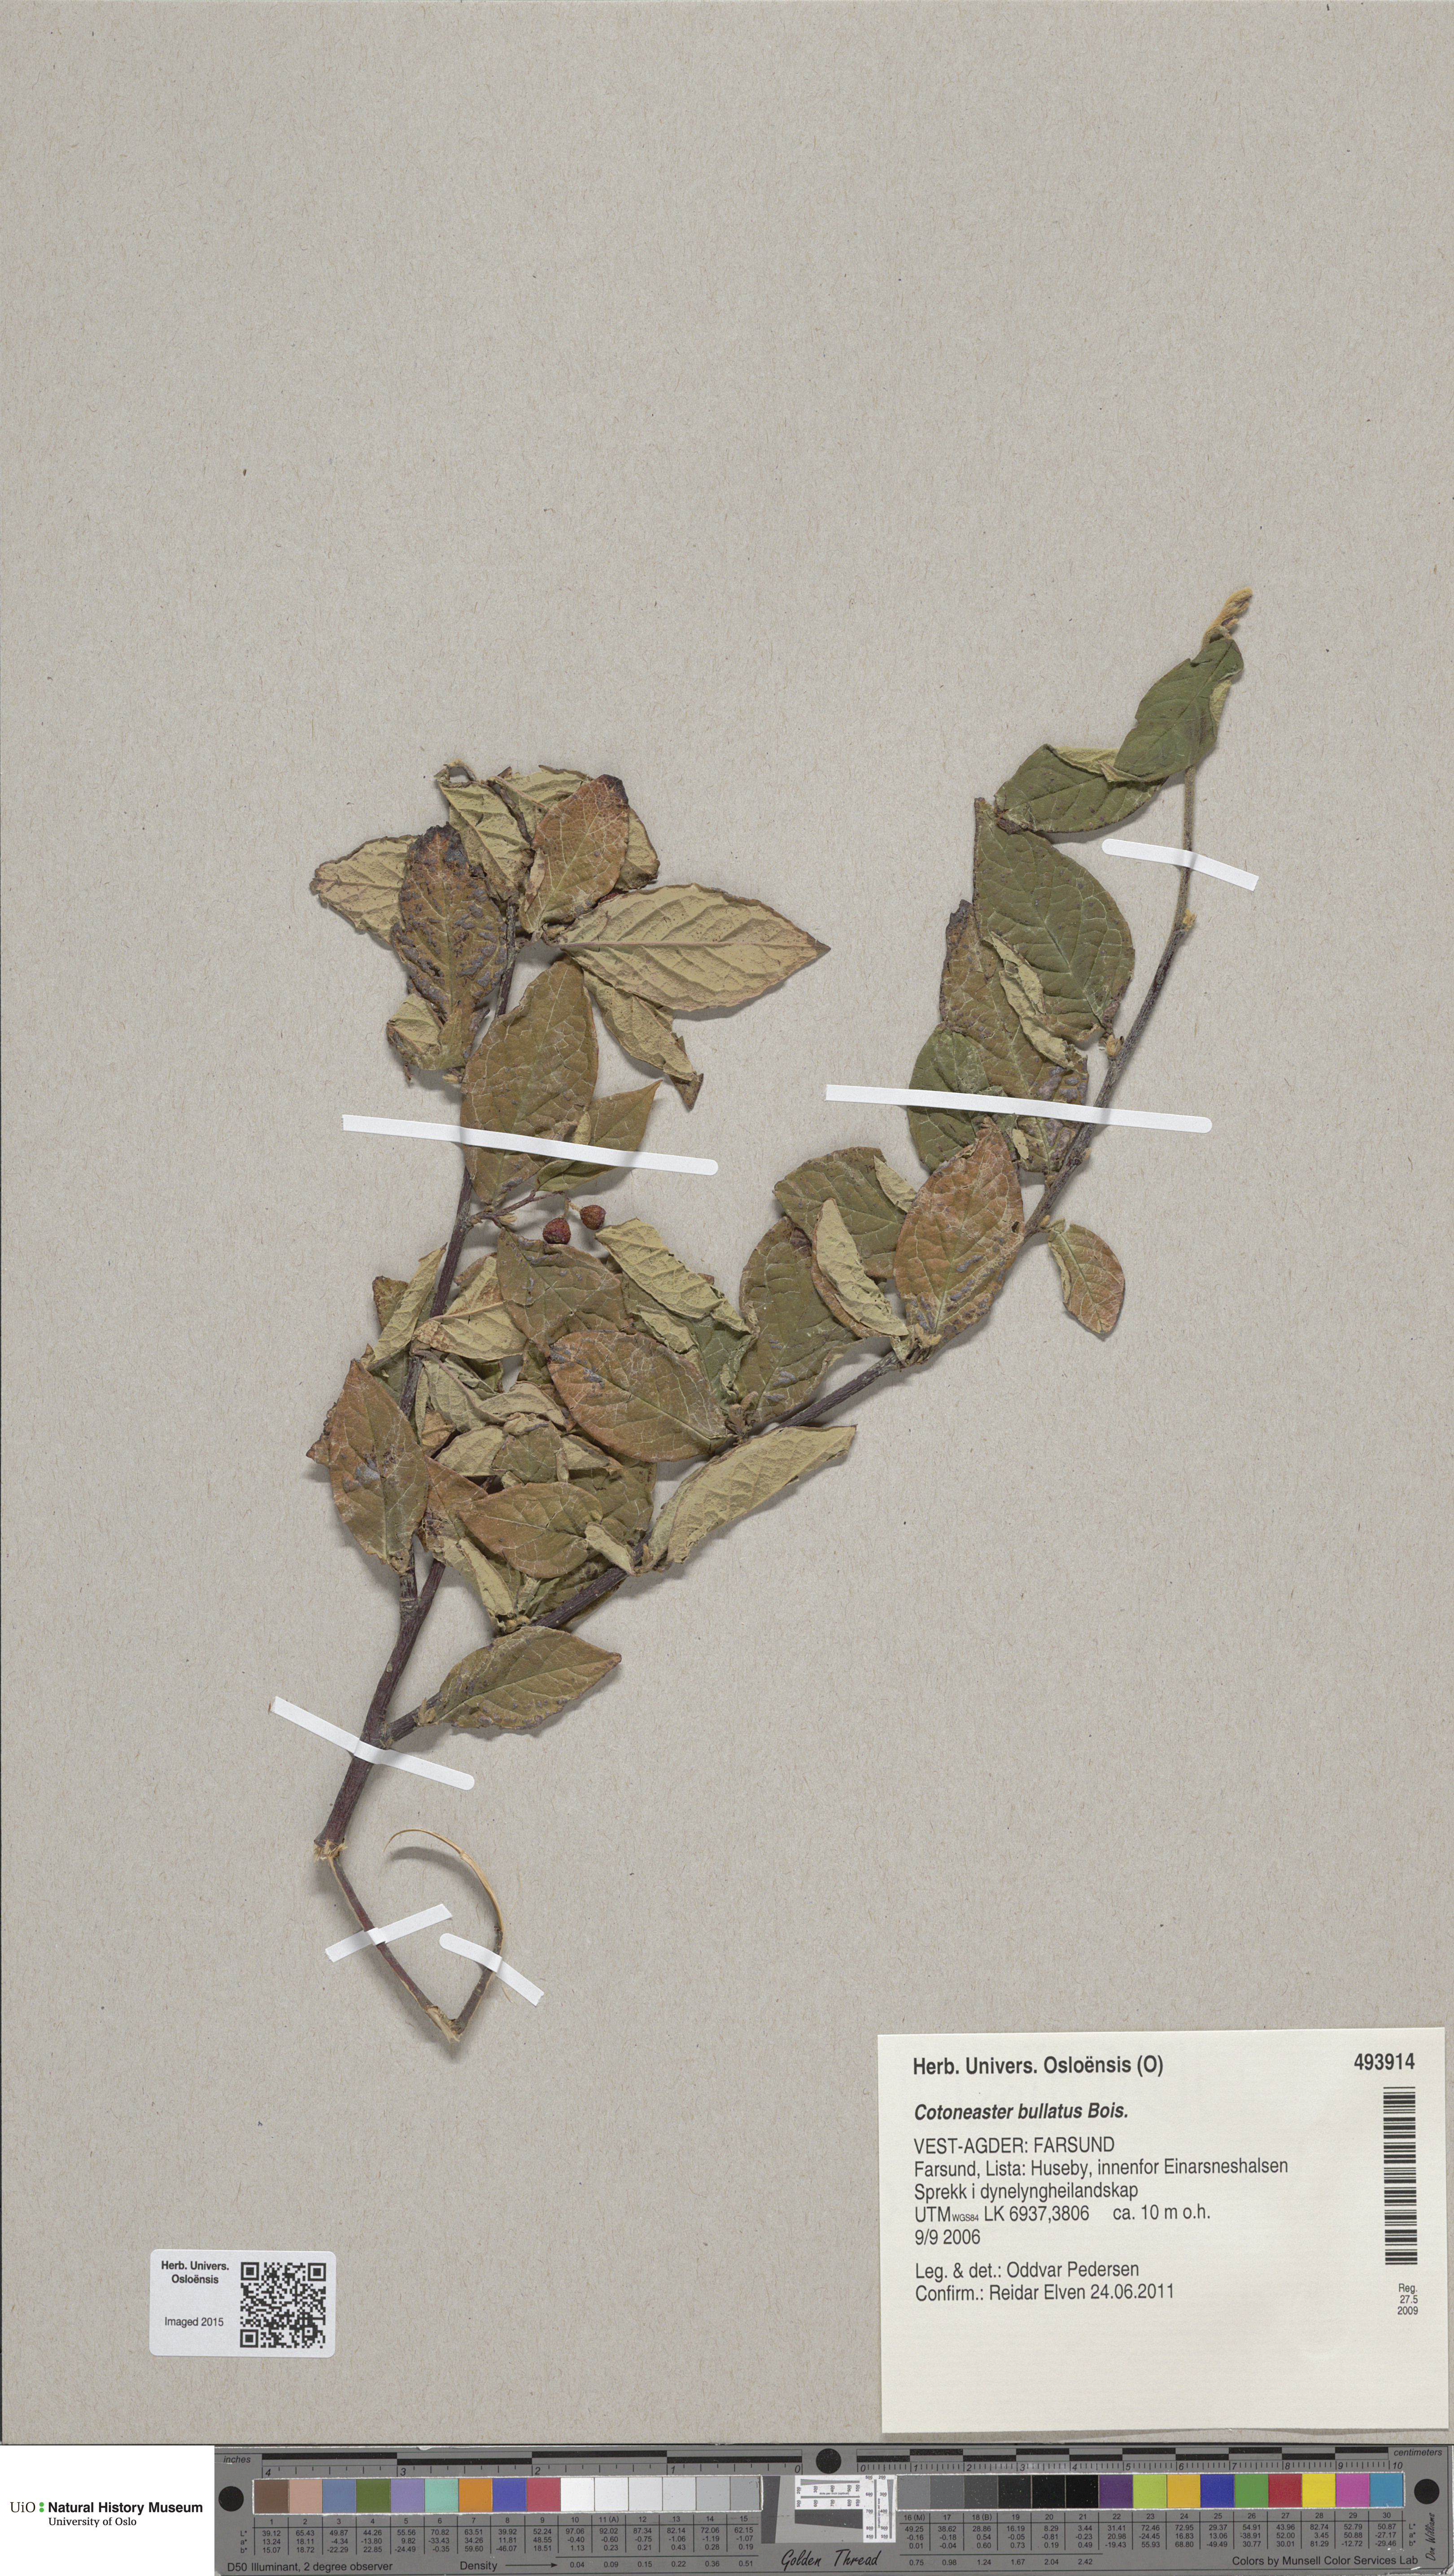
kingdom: Plantae
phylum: Tracheophyta
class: Magnoliopsida
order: Rosales
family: Rosaceae
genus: Cotoneaster
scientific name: Cotoneaster bullatus
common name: Hollyberry cotoneaster
